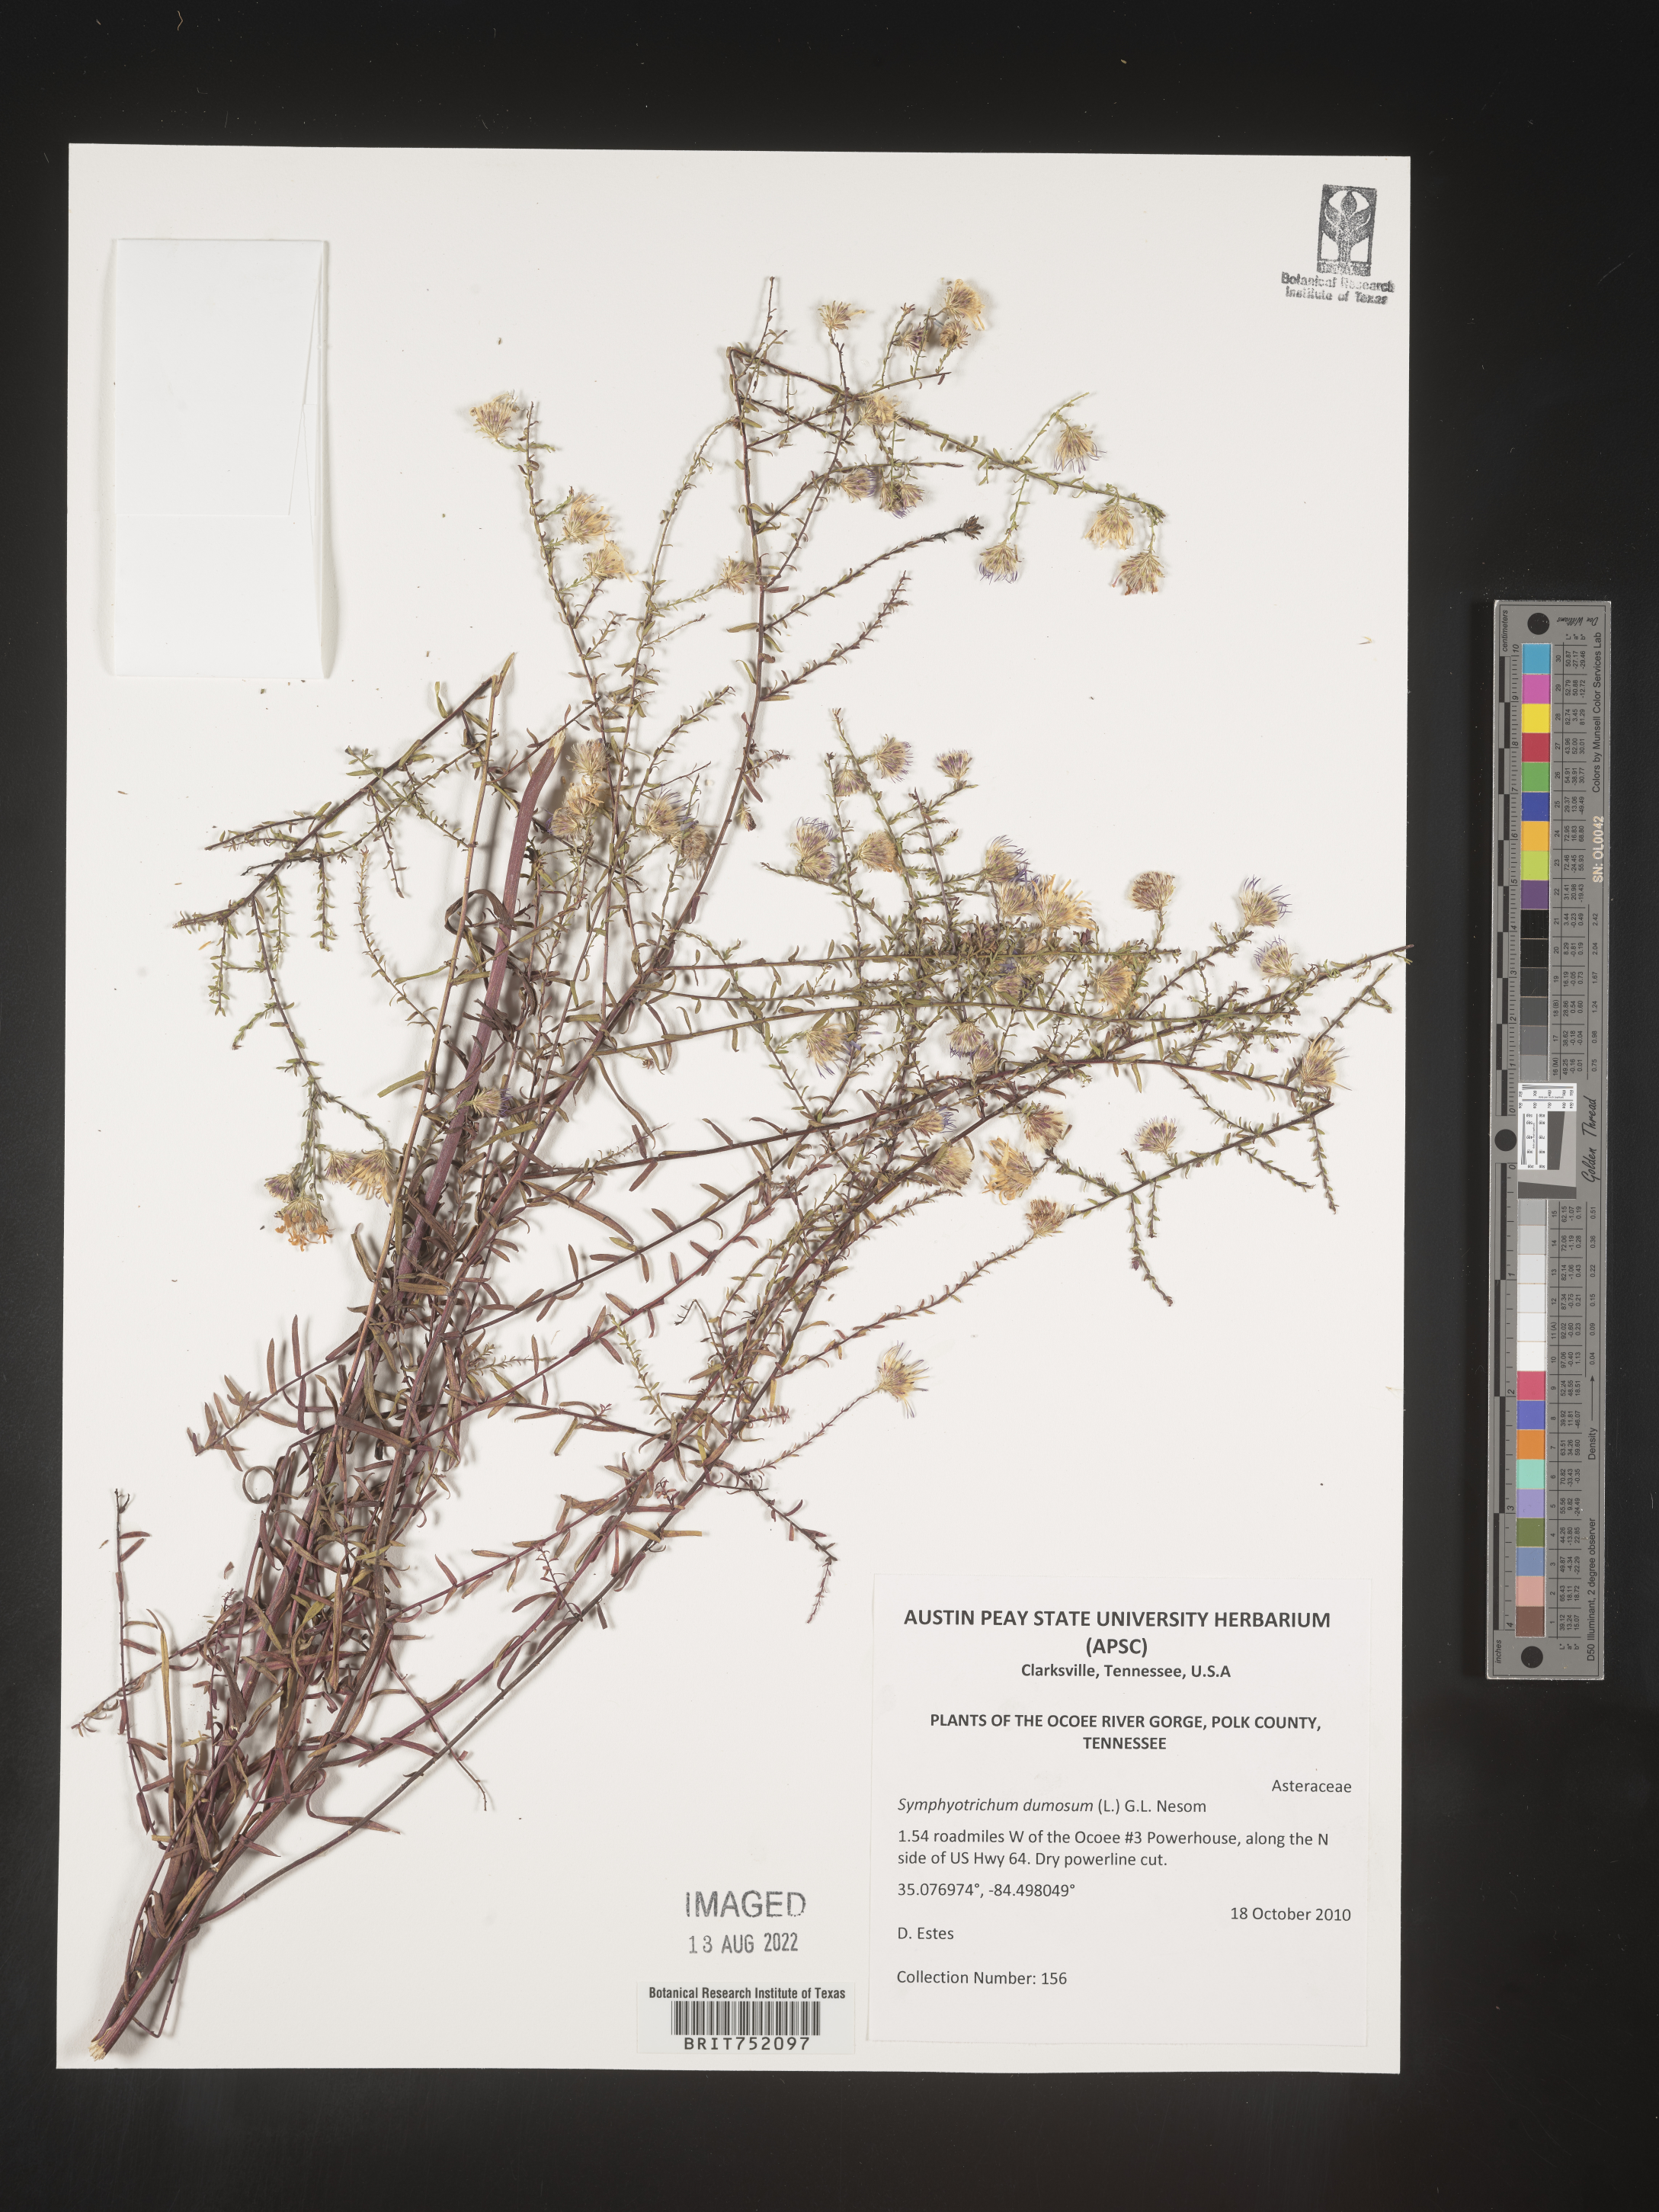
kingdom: Plantae
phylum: Tracheophyta
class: Magnoliopsida
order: Asterales
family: Asteraceae
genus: Symphyotrichum
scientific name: Symphyotrichum dumosum
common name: Bushy aster
